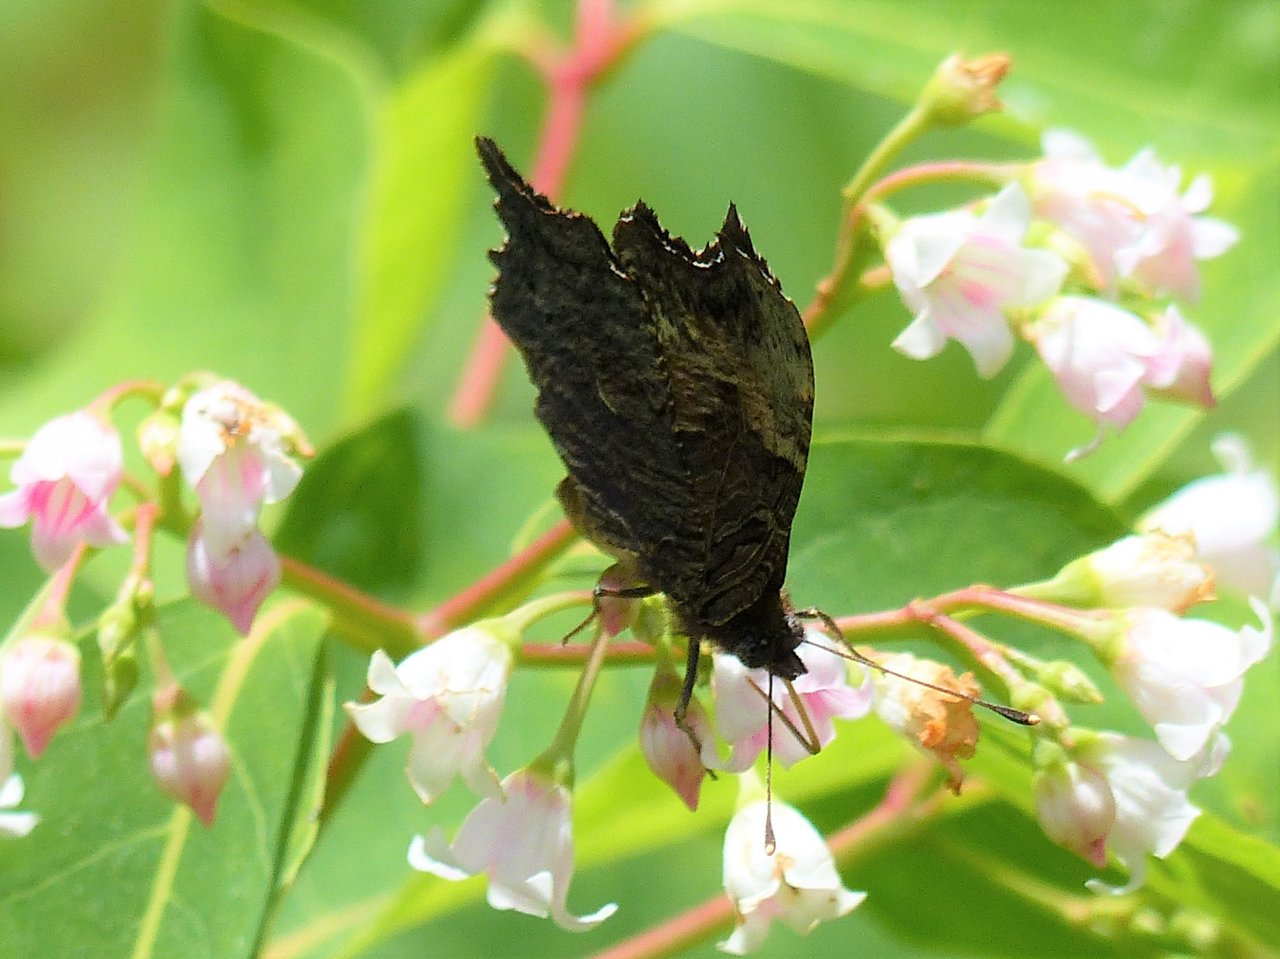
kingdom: Animalia
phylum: Arthropoda
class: Insecta
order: Lepidoptera
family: Nymphalidae
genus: Polygonia
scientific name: Polygonia progne
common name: Gray Comma
